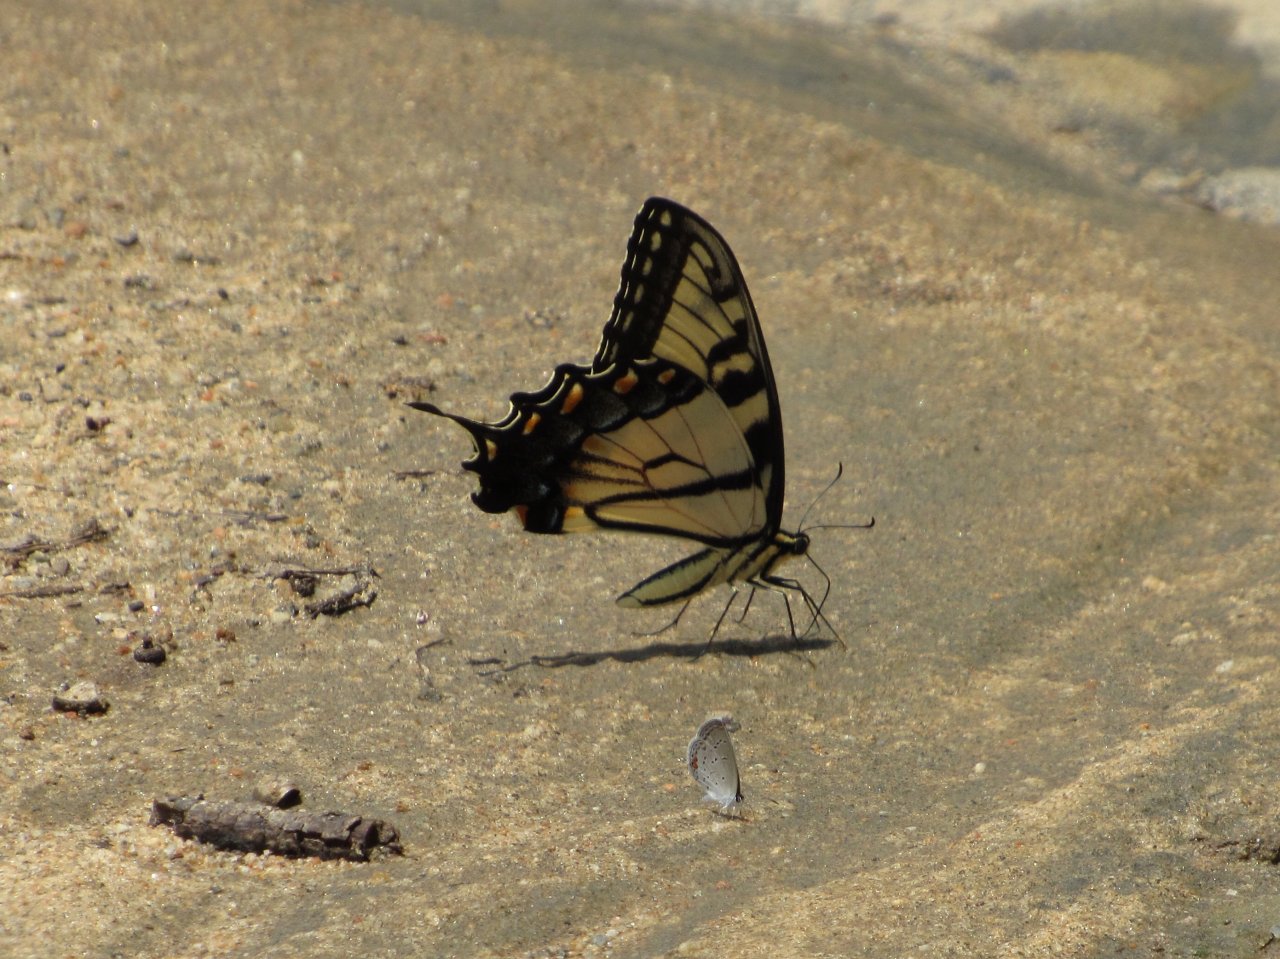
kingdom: Animalia
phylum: Arthropoda
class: Insecta
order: Lepidoptera
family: Papilionidae
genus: Pterourus
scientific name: Pterourus glaucus
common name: Eastern Tiger Swallowtail
